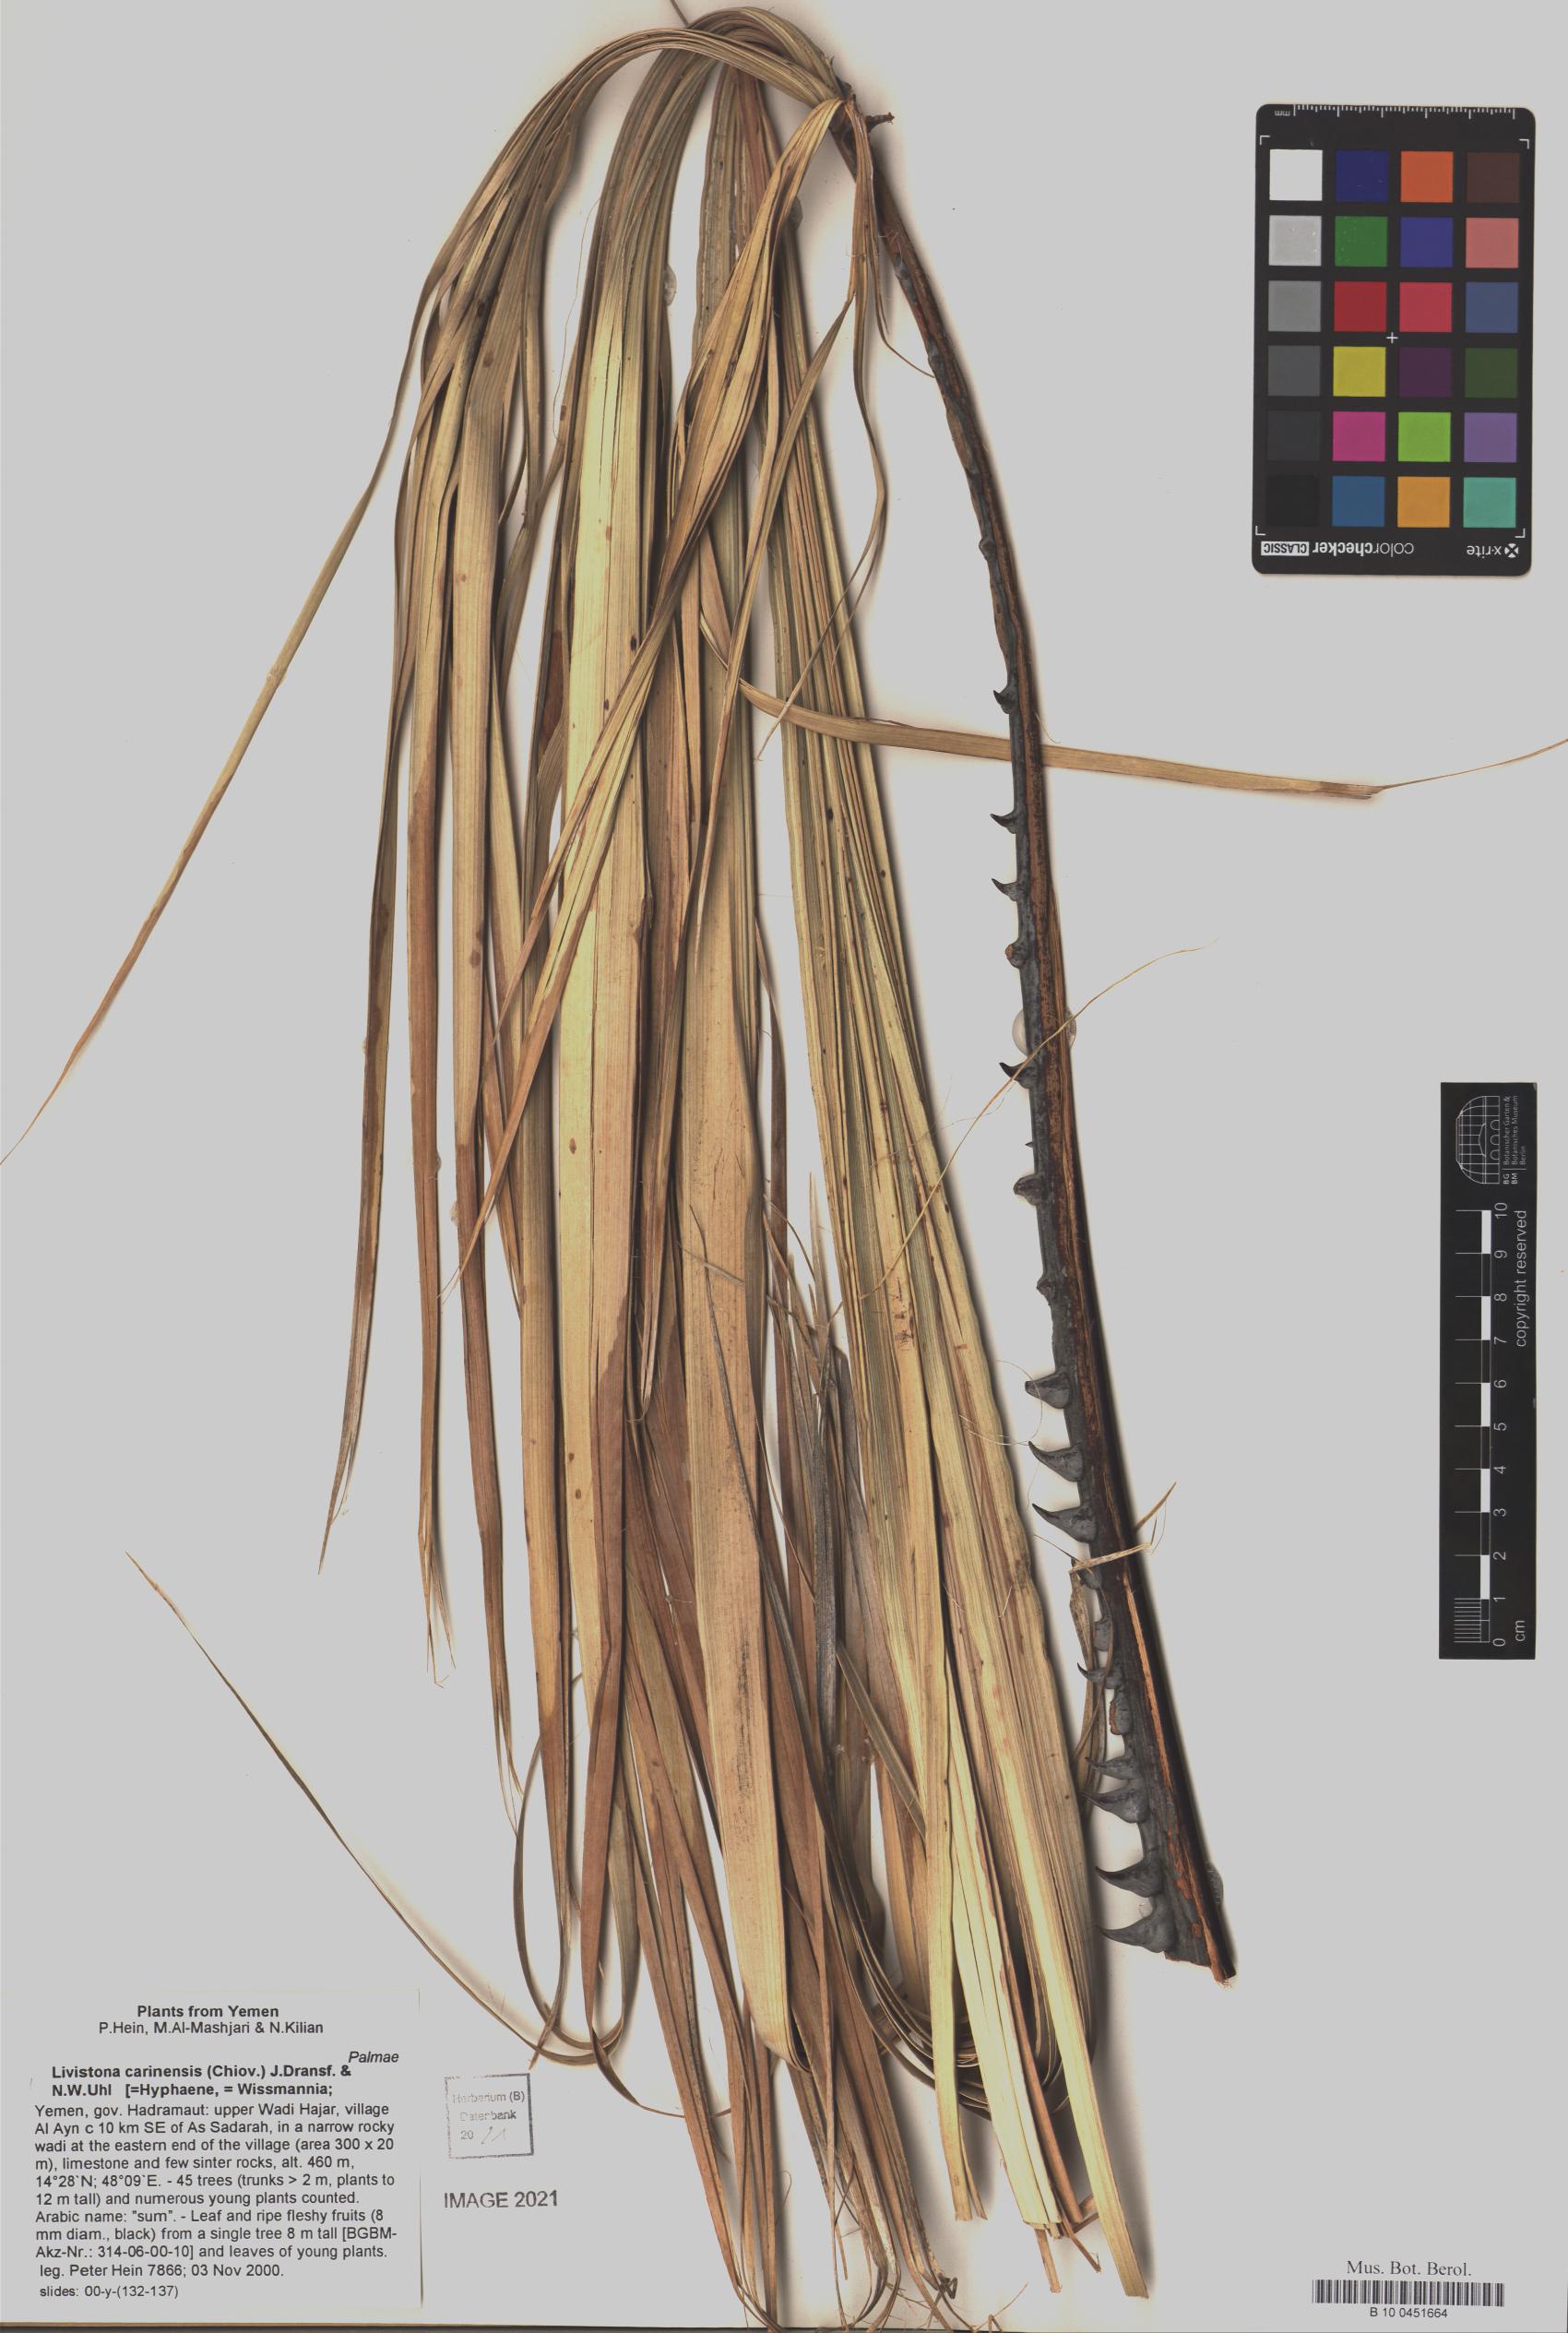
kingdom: Plantae
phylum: Tracheophyta
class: Liliopsida
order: Arecales
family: Arecaceae
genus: Livistona
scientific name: Livistona carinensis
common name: Bankoualé palm
